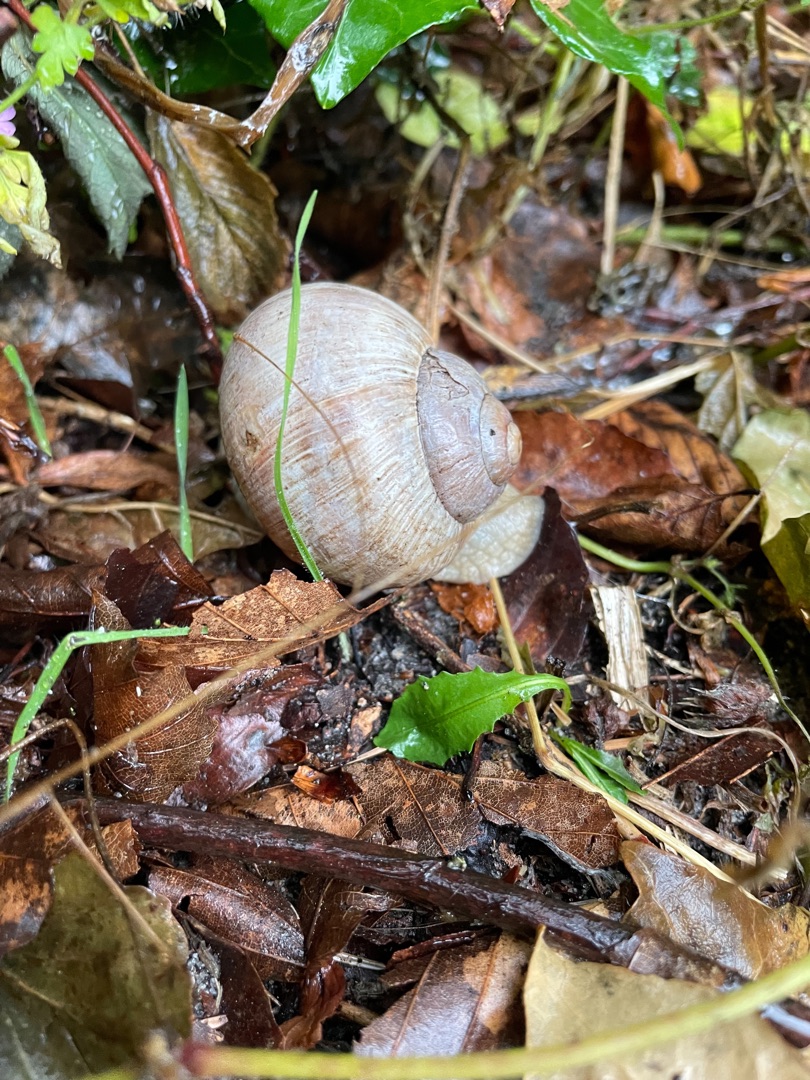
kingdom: Animalia
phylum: Mollusca
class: Gastropoda
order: Stylommatophora
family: Helicidae
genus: Helix
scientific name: Helix pomatia
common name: Vinbjergsnegl
